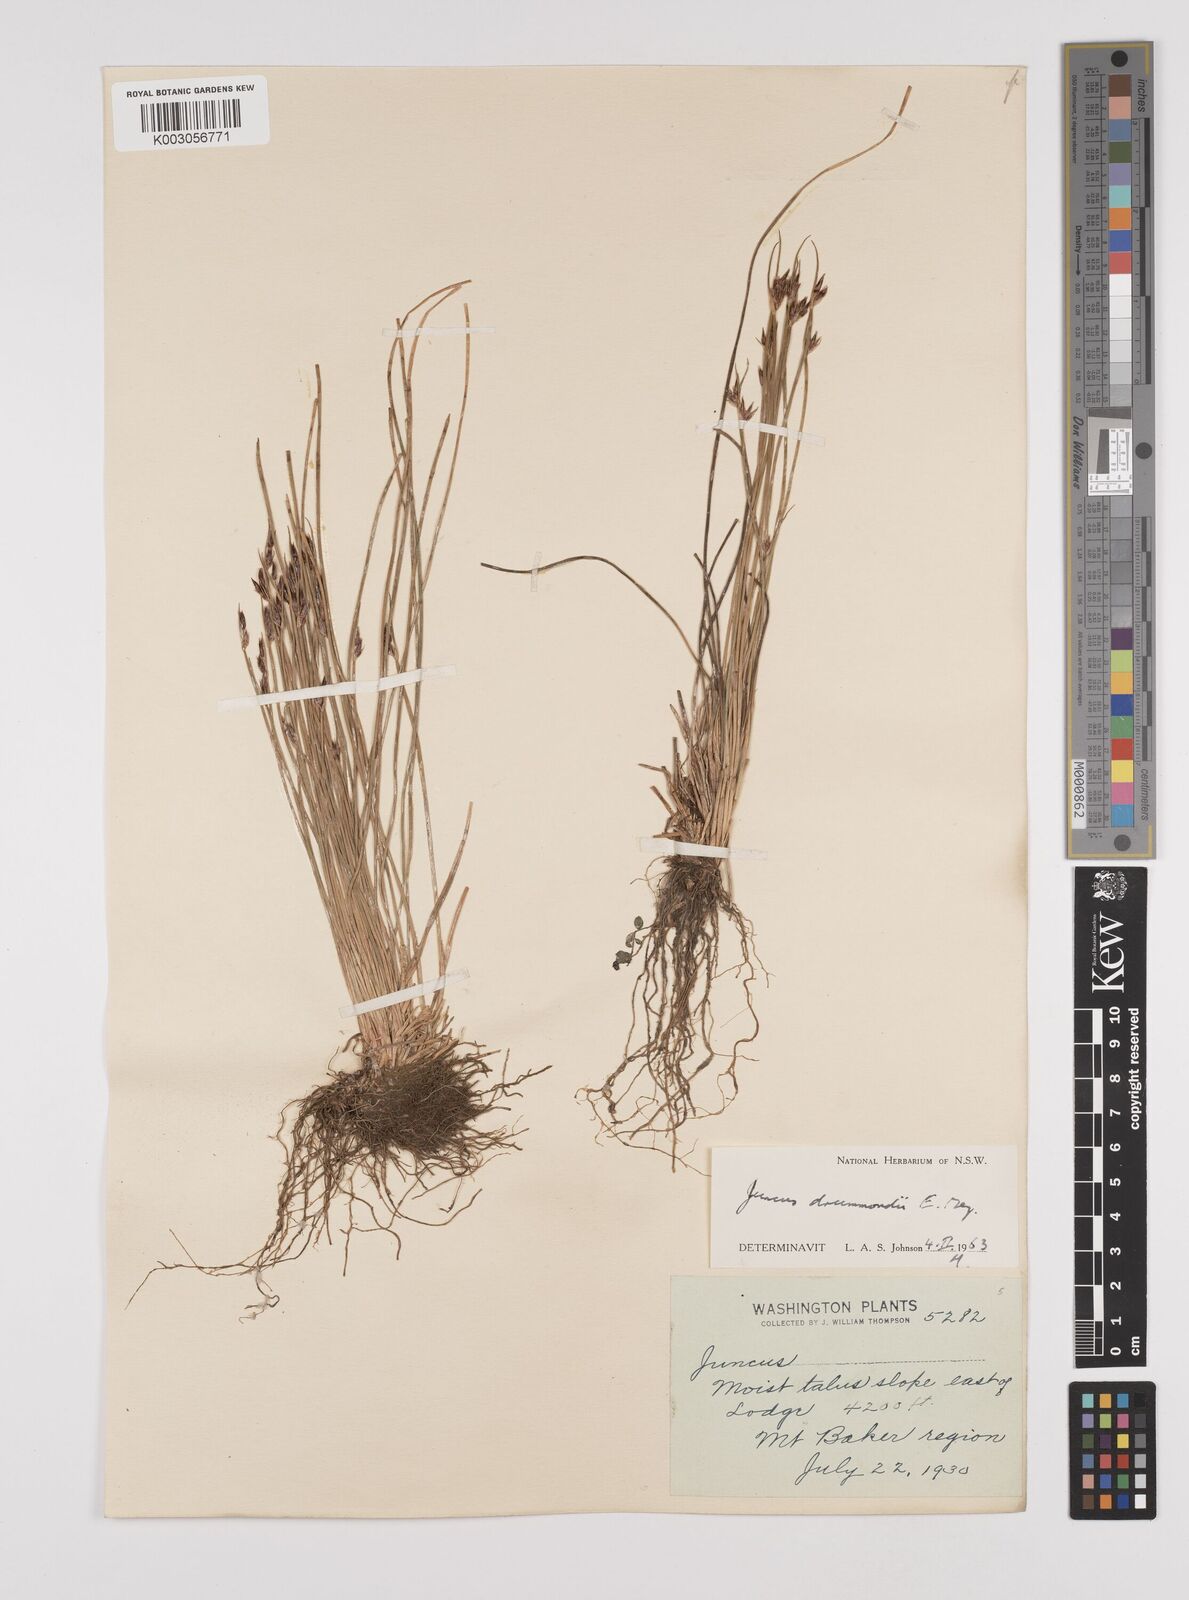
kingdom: Plantae
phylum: Tracheophyta
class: Liliopsida
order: Poales
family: Juncaceae
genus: Juncus
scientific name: Juncus drummondii
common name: Drummond's rush
